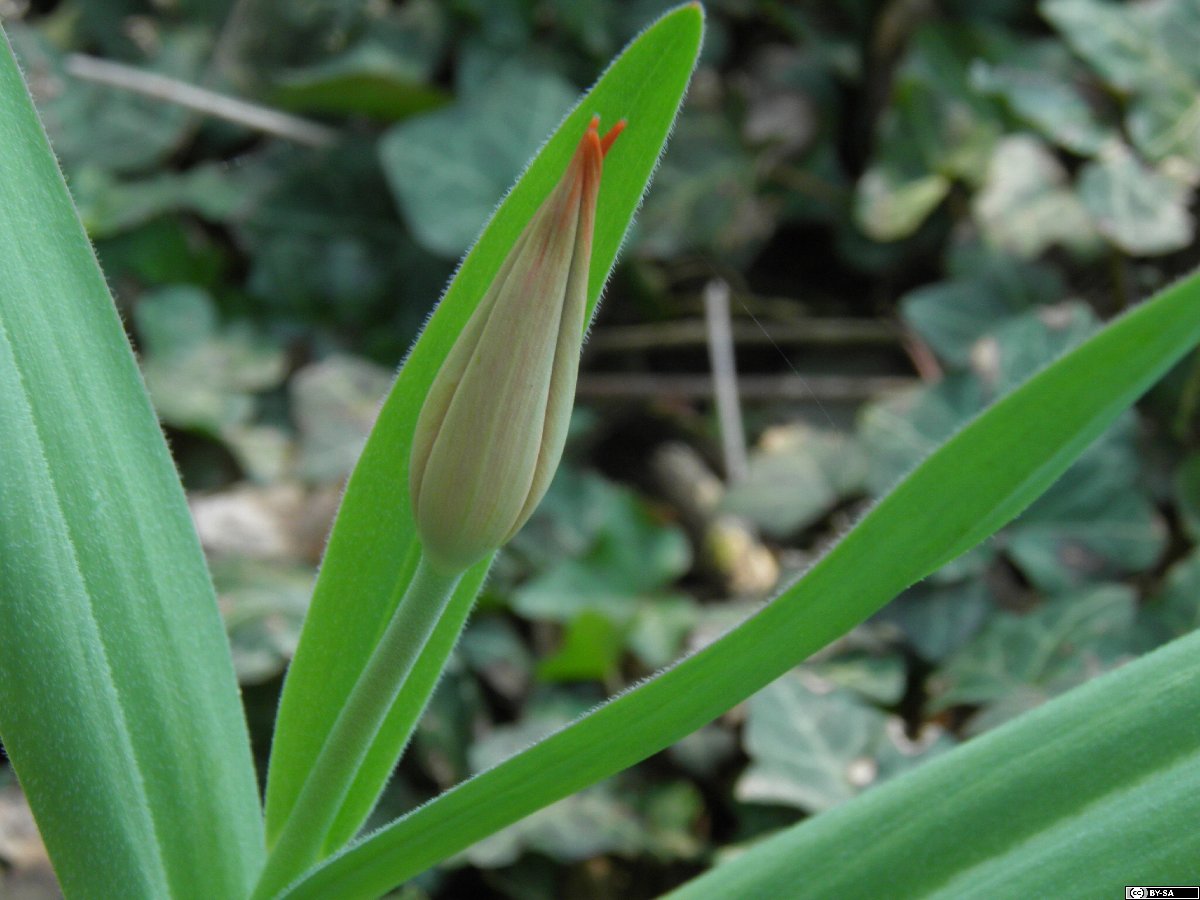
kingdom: Plantae
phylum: Tracheophyta
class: Liliopsida
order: Liliales
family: Liliaceae
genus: Tulipa
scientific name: Tulipa praestans
